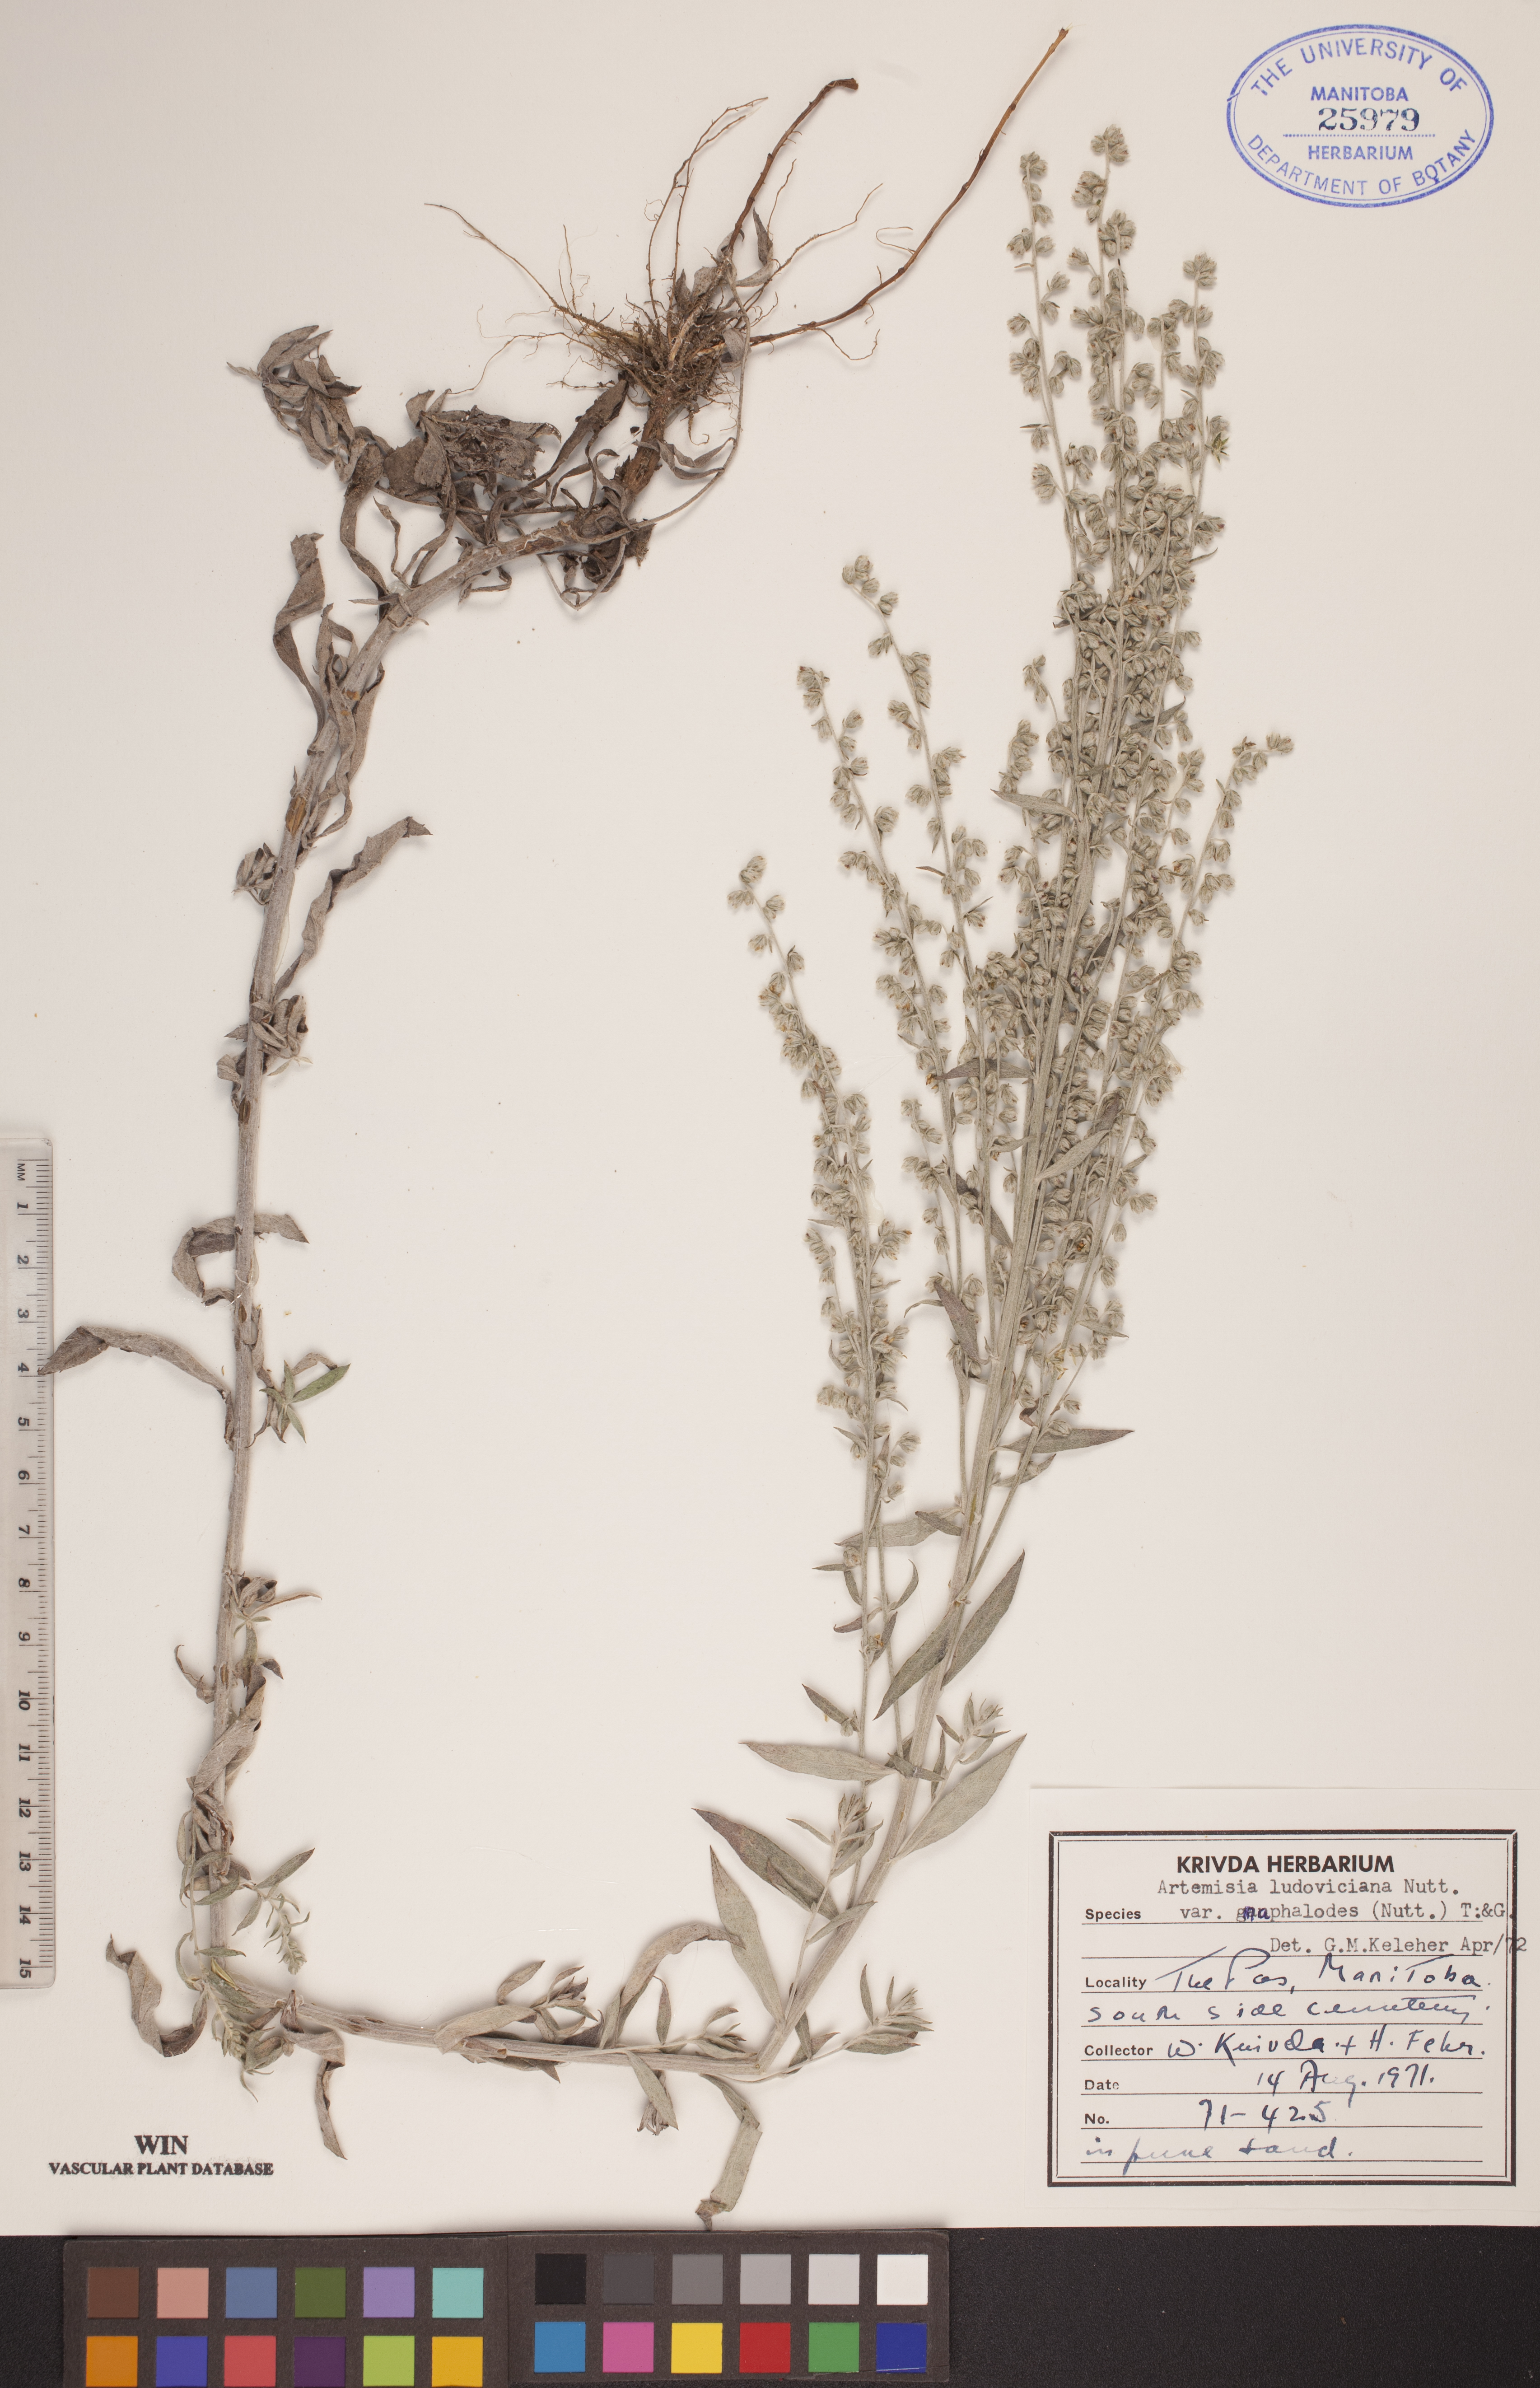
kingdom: Plantae
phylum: Tracheophyta
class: Magnoliopsida
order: Asterales
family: Asteraceae
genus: Artemisia
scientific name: Artemisia ludoviciana
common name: Western mugwort
